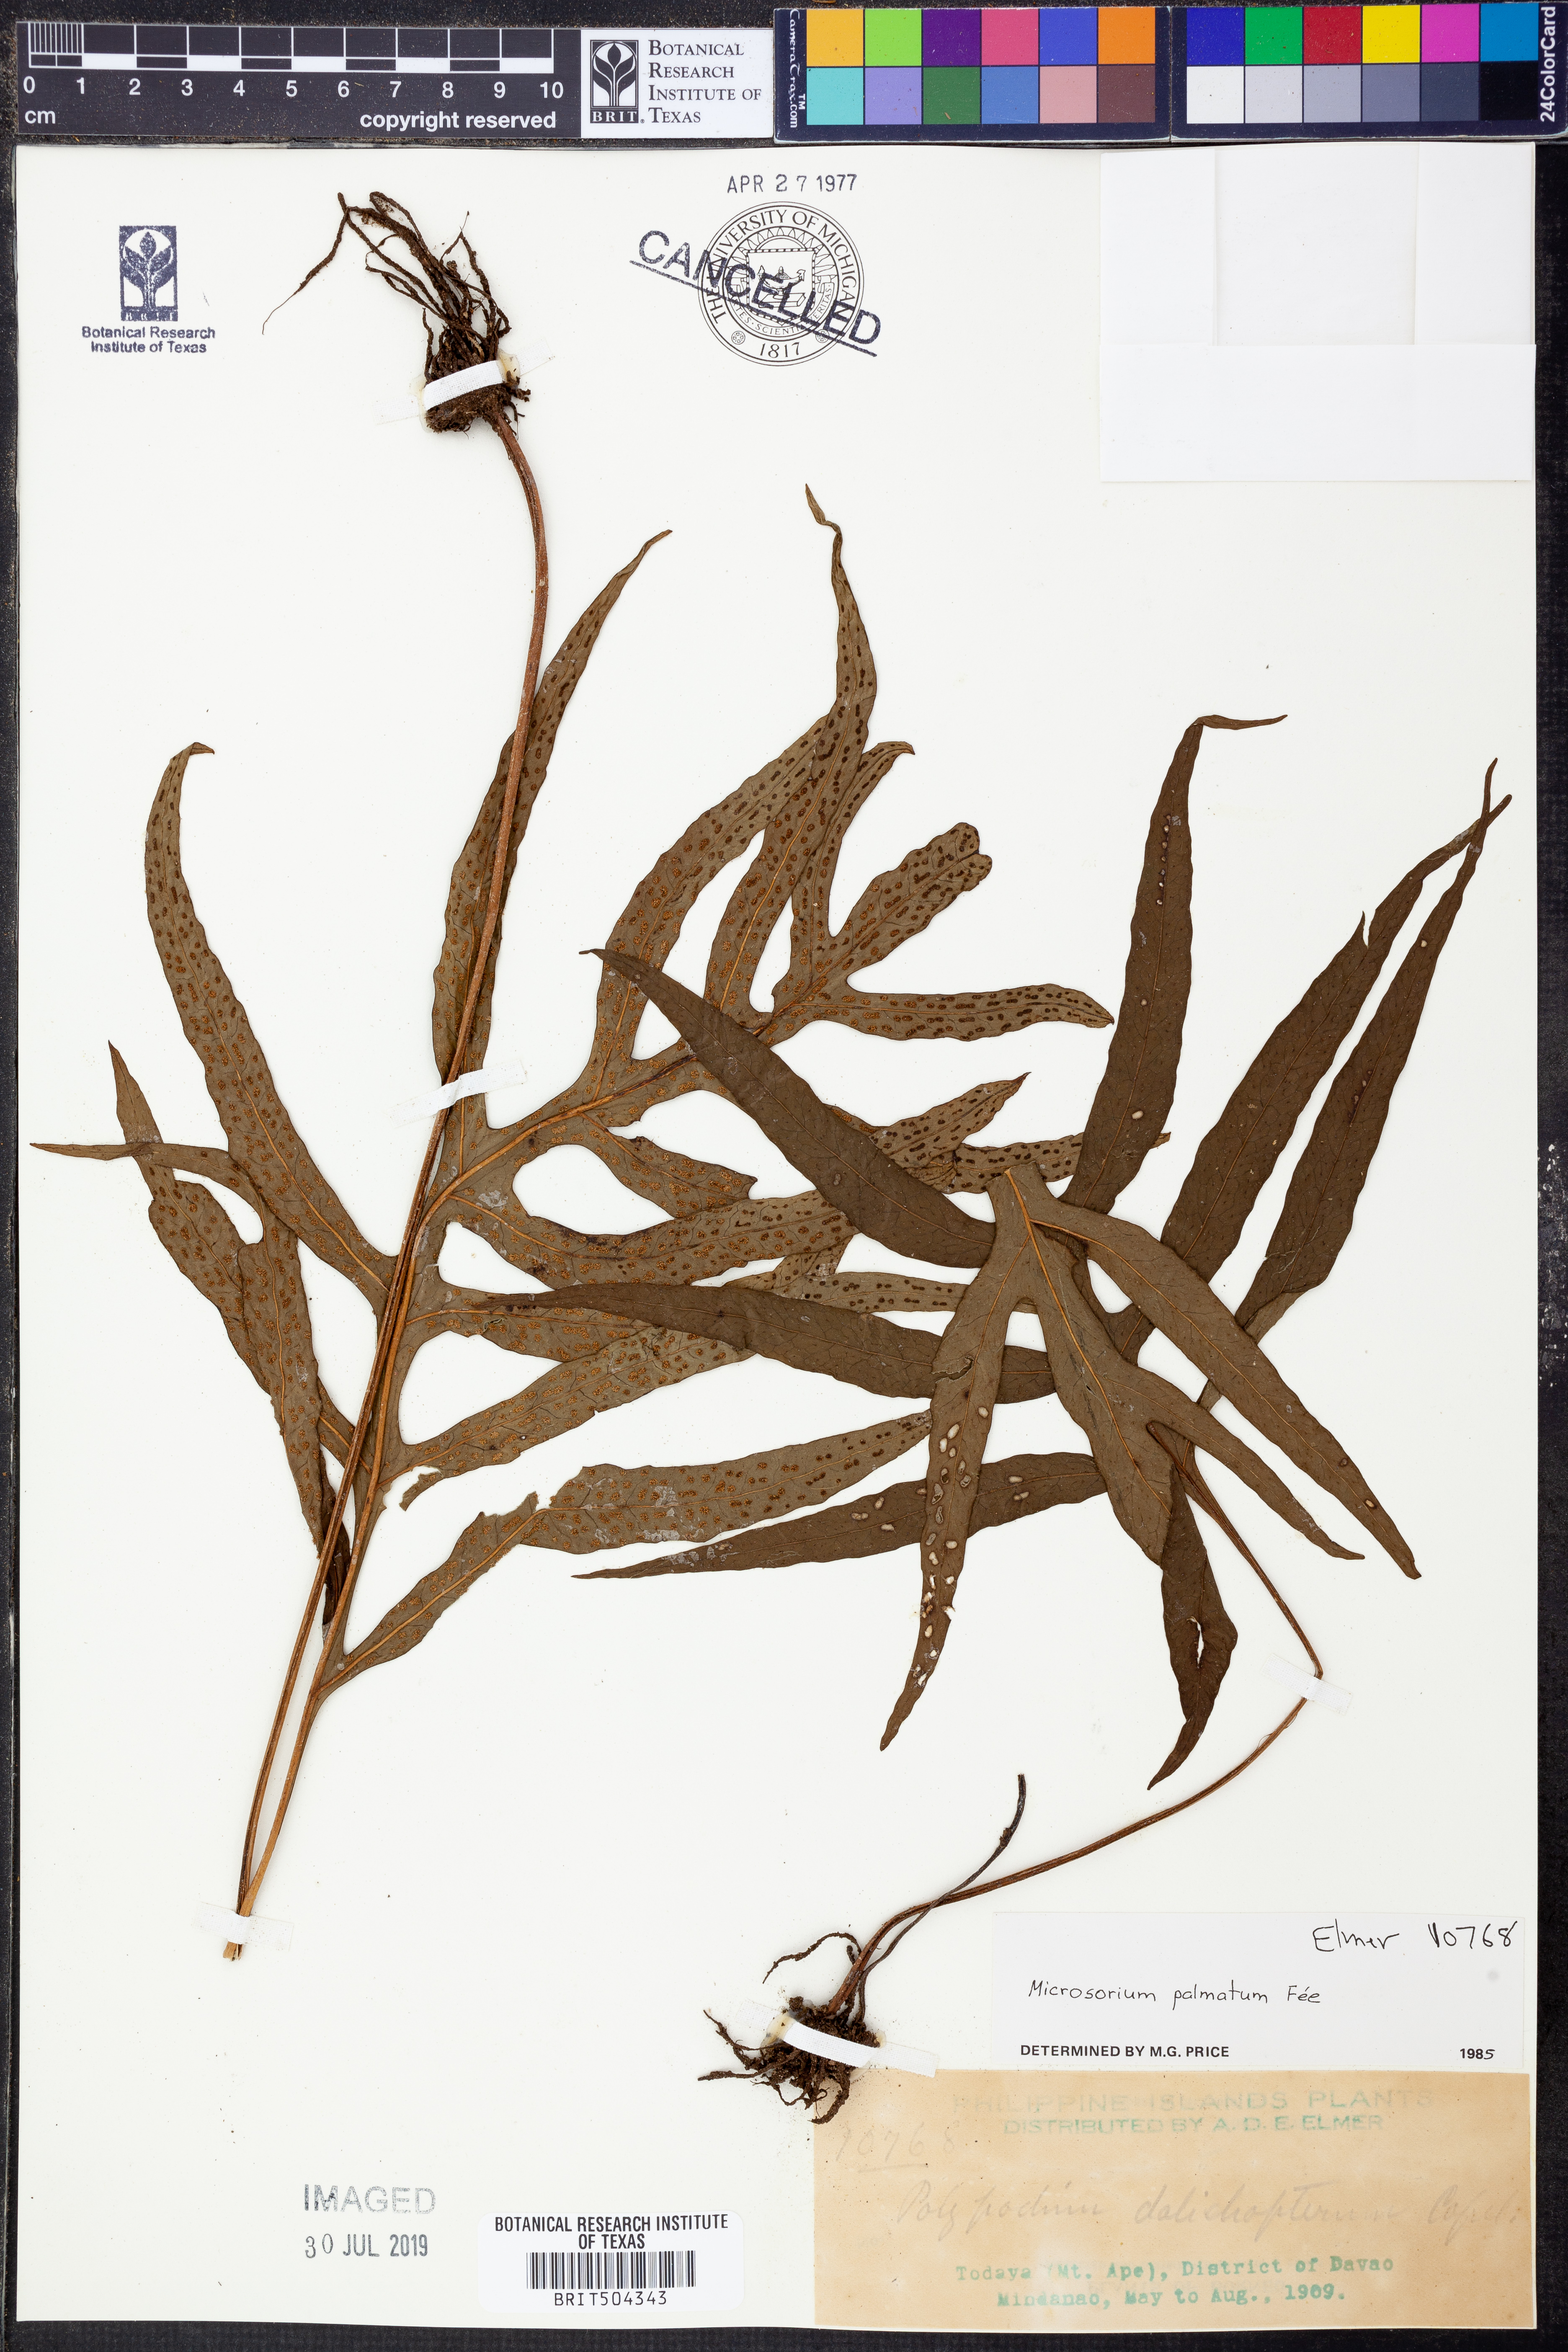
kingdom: Plantae
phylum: Tracheophyta
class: Polypodiopsida
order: Polypodiales
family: Polypodiaceae
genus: Selliguea
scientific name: Selliguea taeniata
